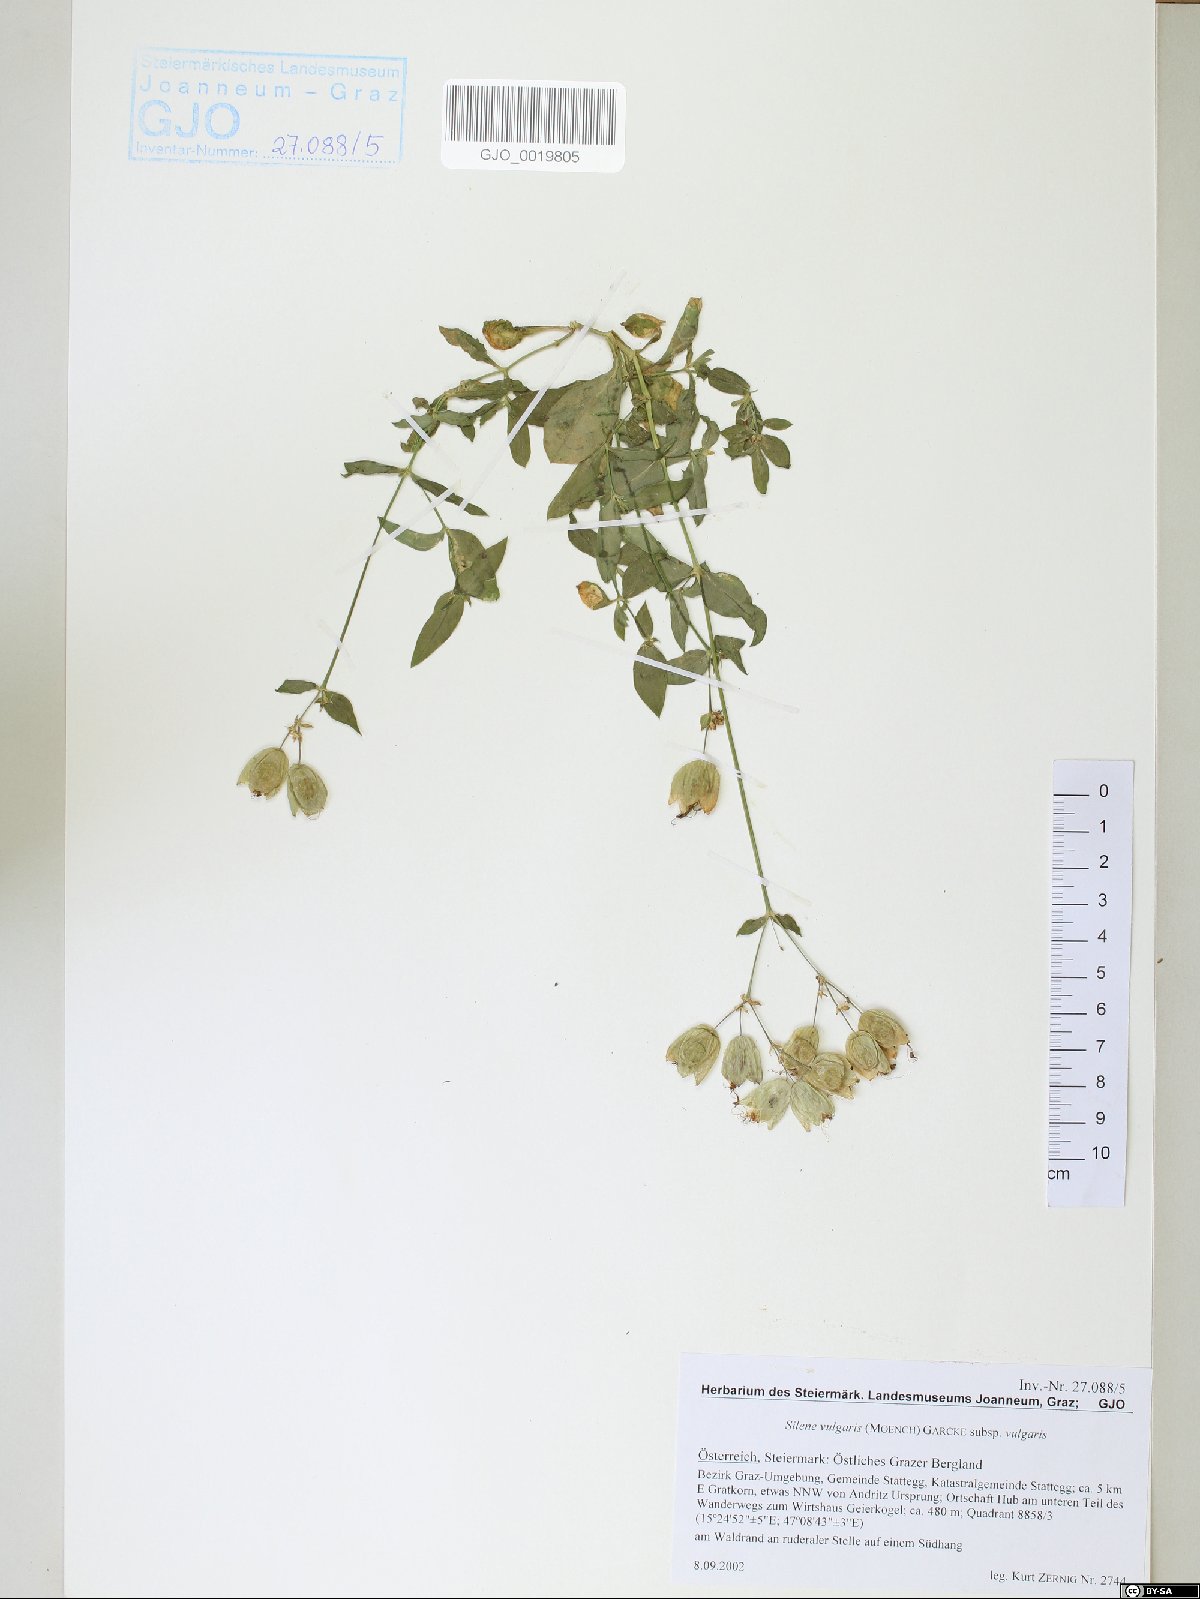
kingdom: Plantae
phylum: Tracheophyta
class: Magnoliopsida
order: Caryophyllales
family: Caryophyllaceae
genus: Silene
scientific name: Silene vulgaris
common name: Bladder campion
